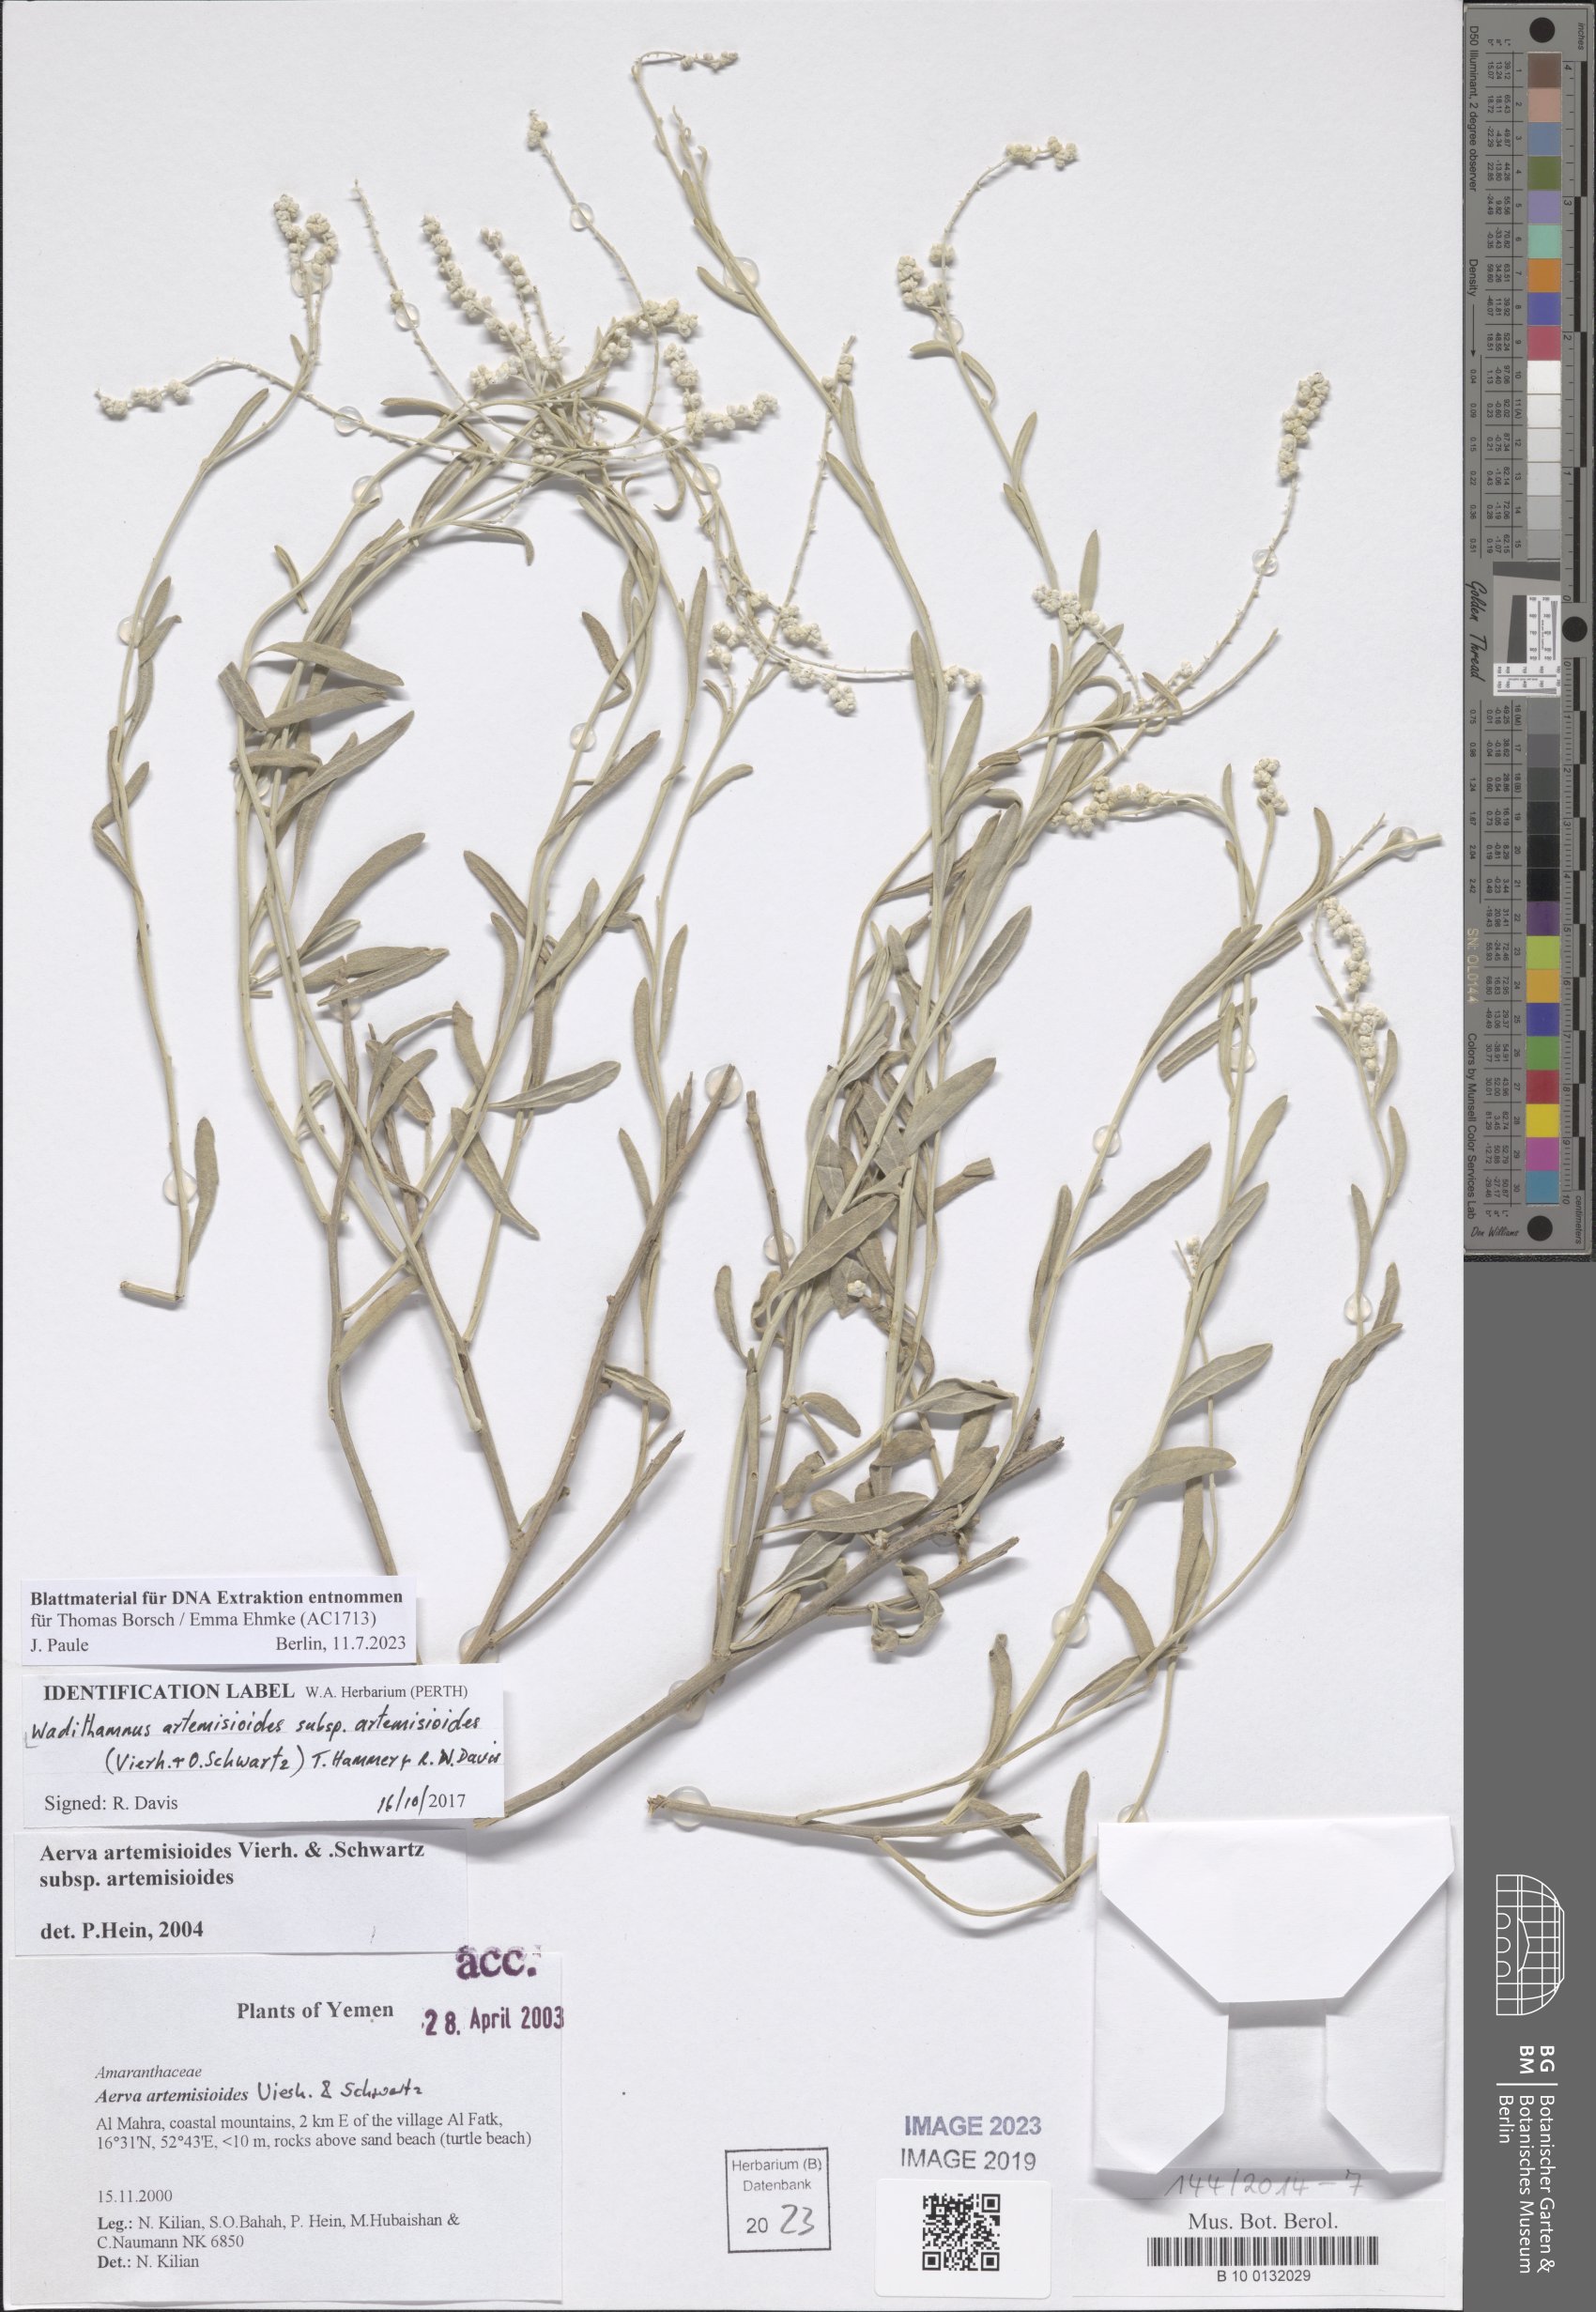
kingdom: Plantae
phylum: Tracheophyta
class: Magnoliopsida
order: Caryophyllales
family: Amaranthaceae
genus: Wadithamnus
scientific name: Wadithamnus artemisioides
